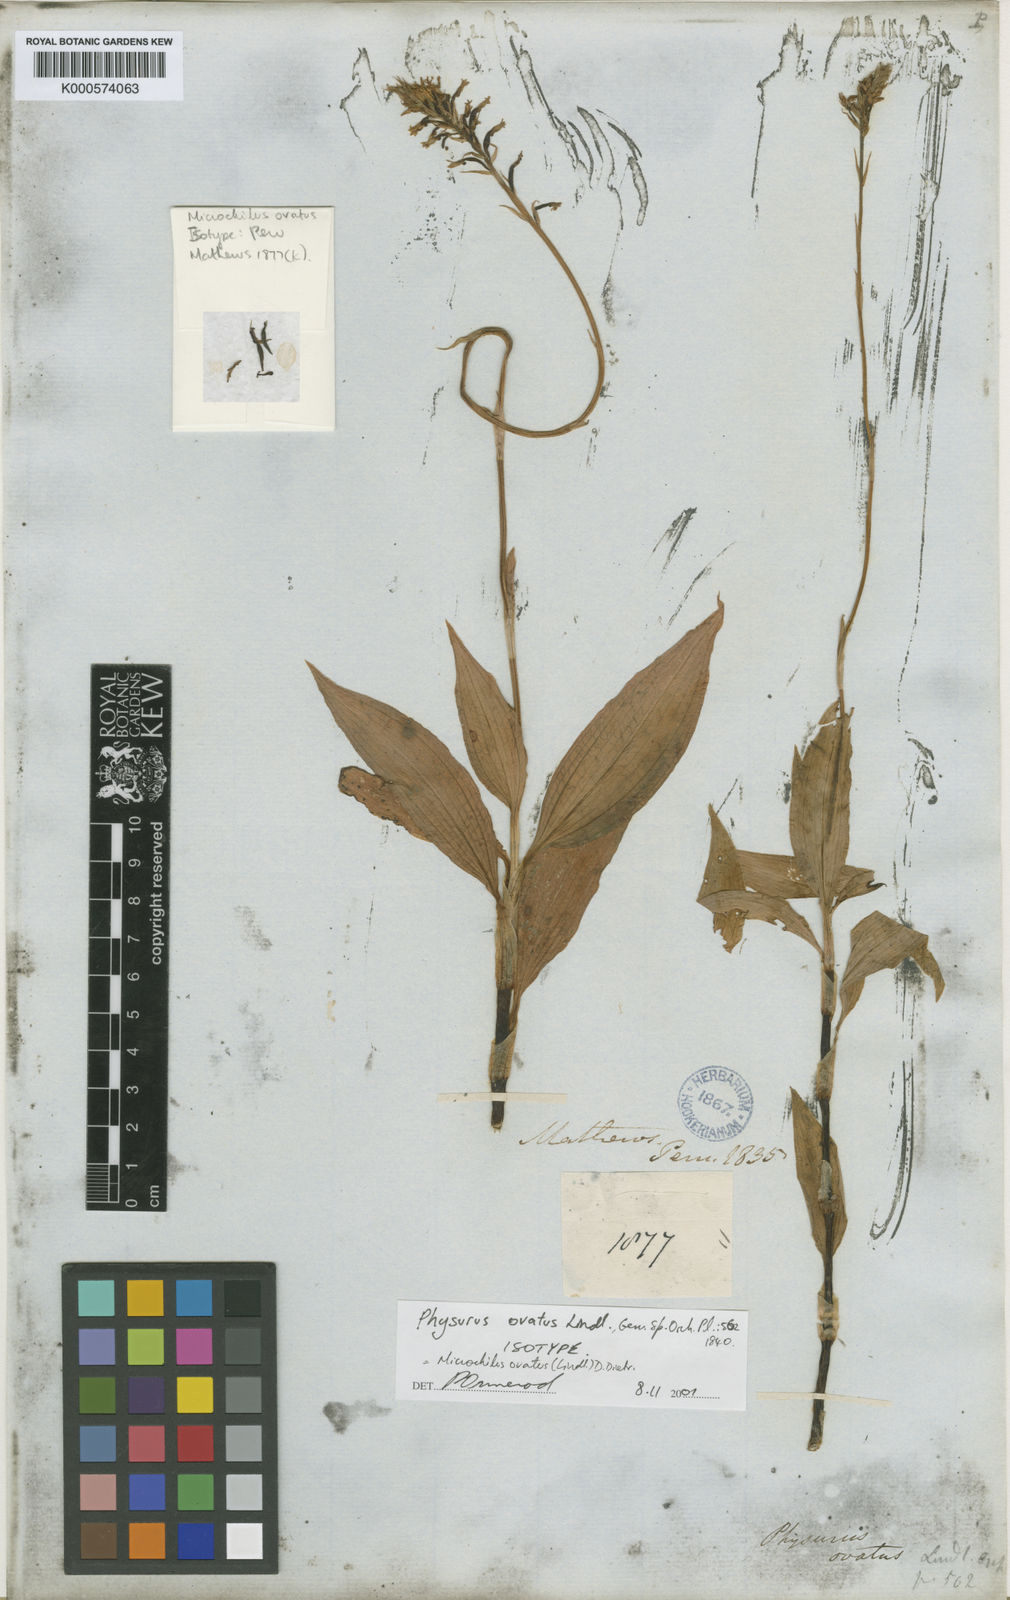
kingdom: Plantae
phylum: Tracheophyta
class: Liliopsida
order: Asparagales
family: Orchidaceae
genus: Microchilus
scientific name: Microchilus ovatus
